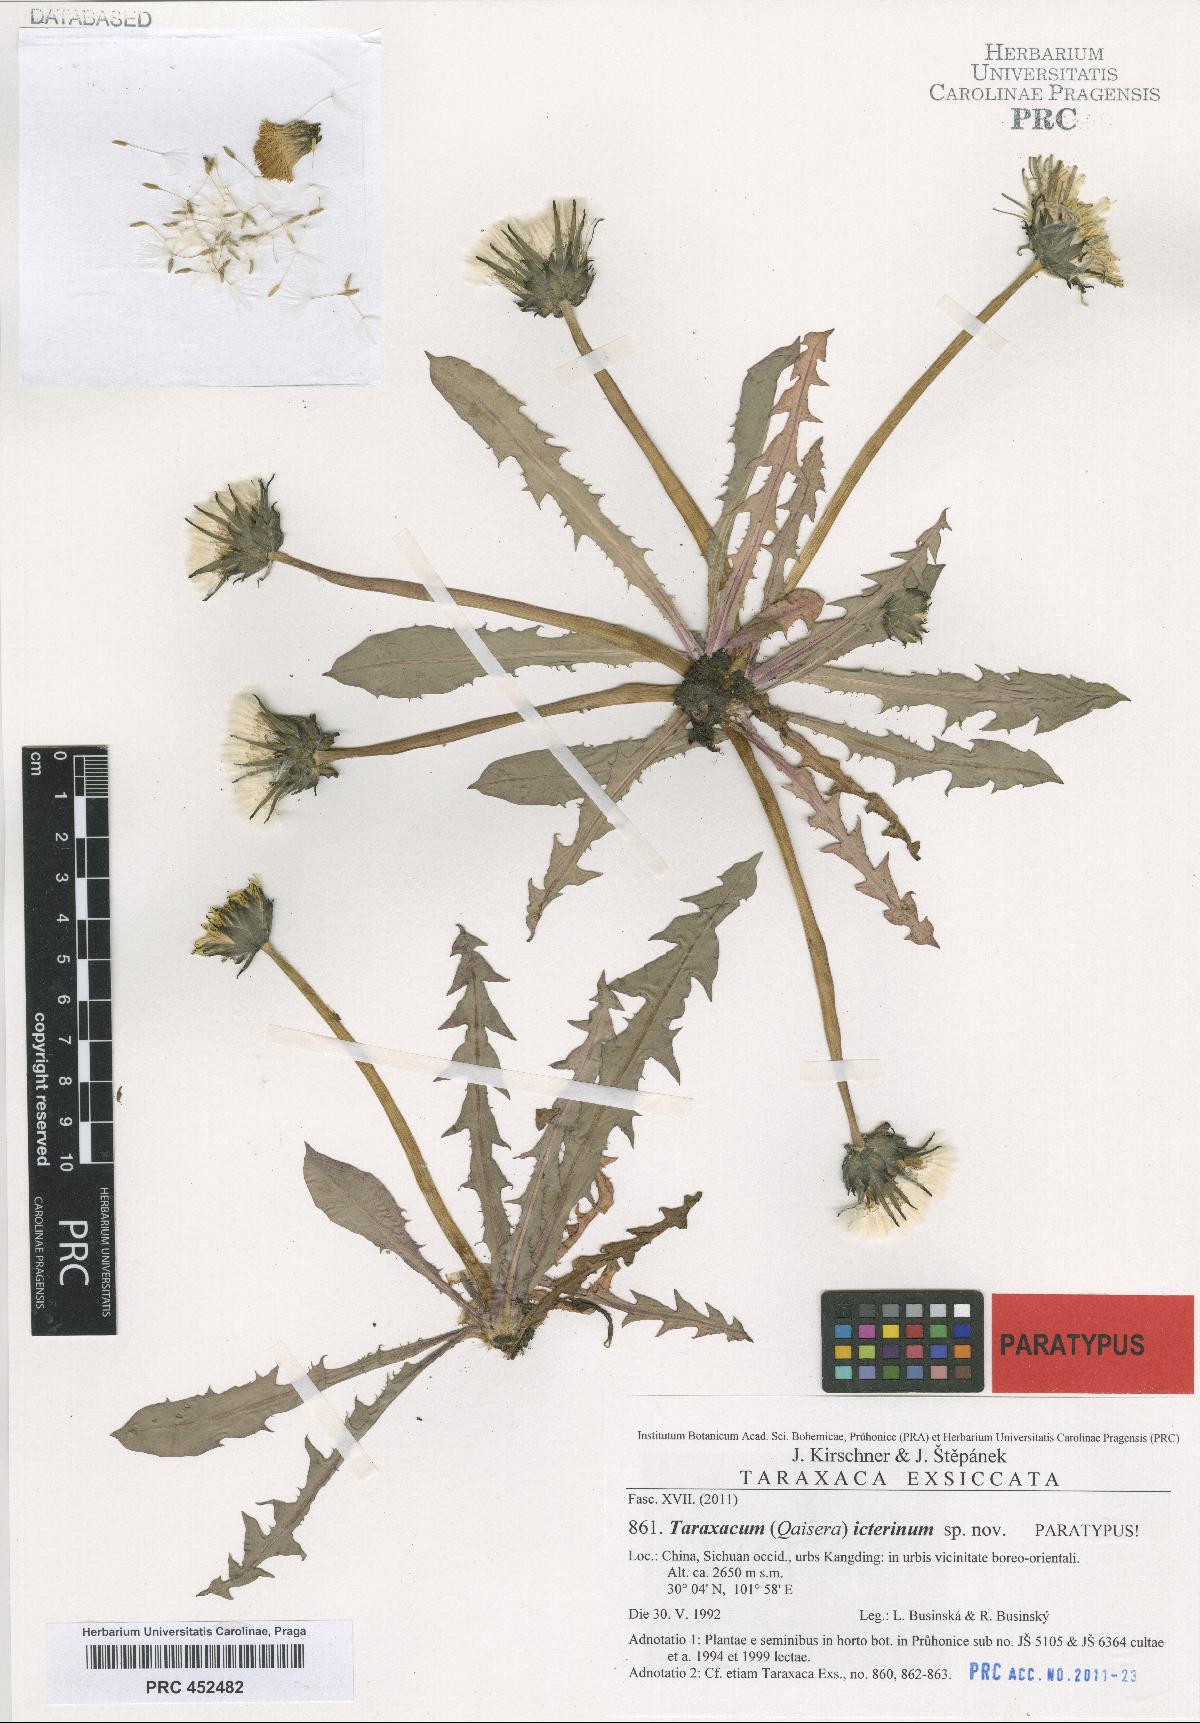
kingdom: Plantae
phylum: Tracheophyta
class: Magnoliopsida
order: Asterales
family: Asteraceae
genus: Taraxacum
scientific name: Taraxacum icterinum
